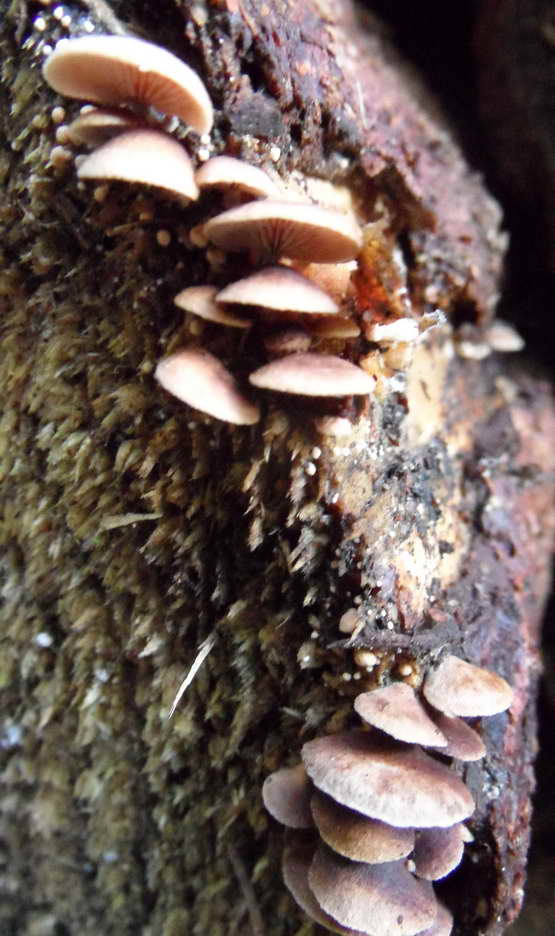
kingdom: Fungi
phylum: Basidiomycota
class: Agaricomycetes
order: Agaricales
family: Strophariaceae
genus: Deconica
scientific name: Deconica horizontalis
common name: ved-stråhat
